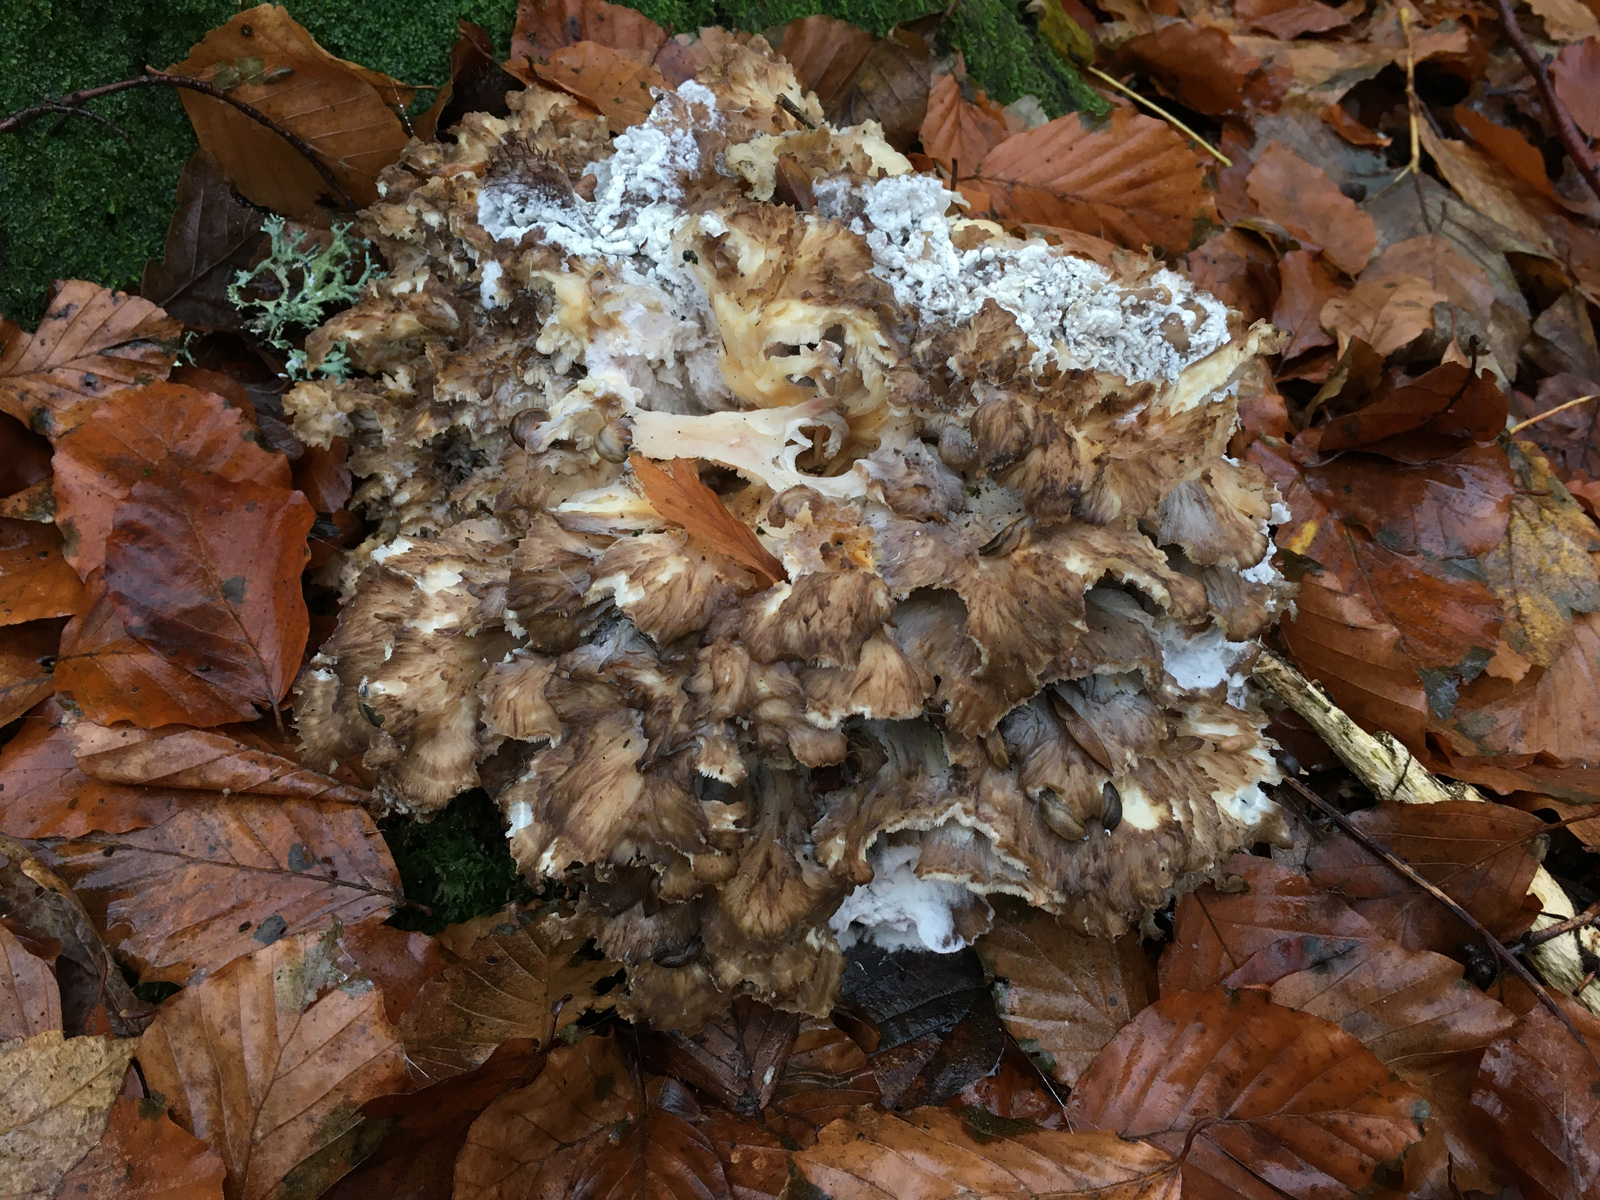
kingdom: Fungi
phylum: Basidiomycota
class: Agaricomycetes
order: Polyporales
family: Grifolaceae
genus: Grifola
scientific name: Grifola frondosa
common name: tueporesvamp
